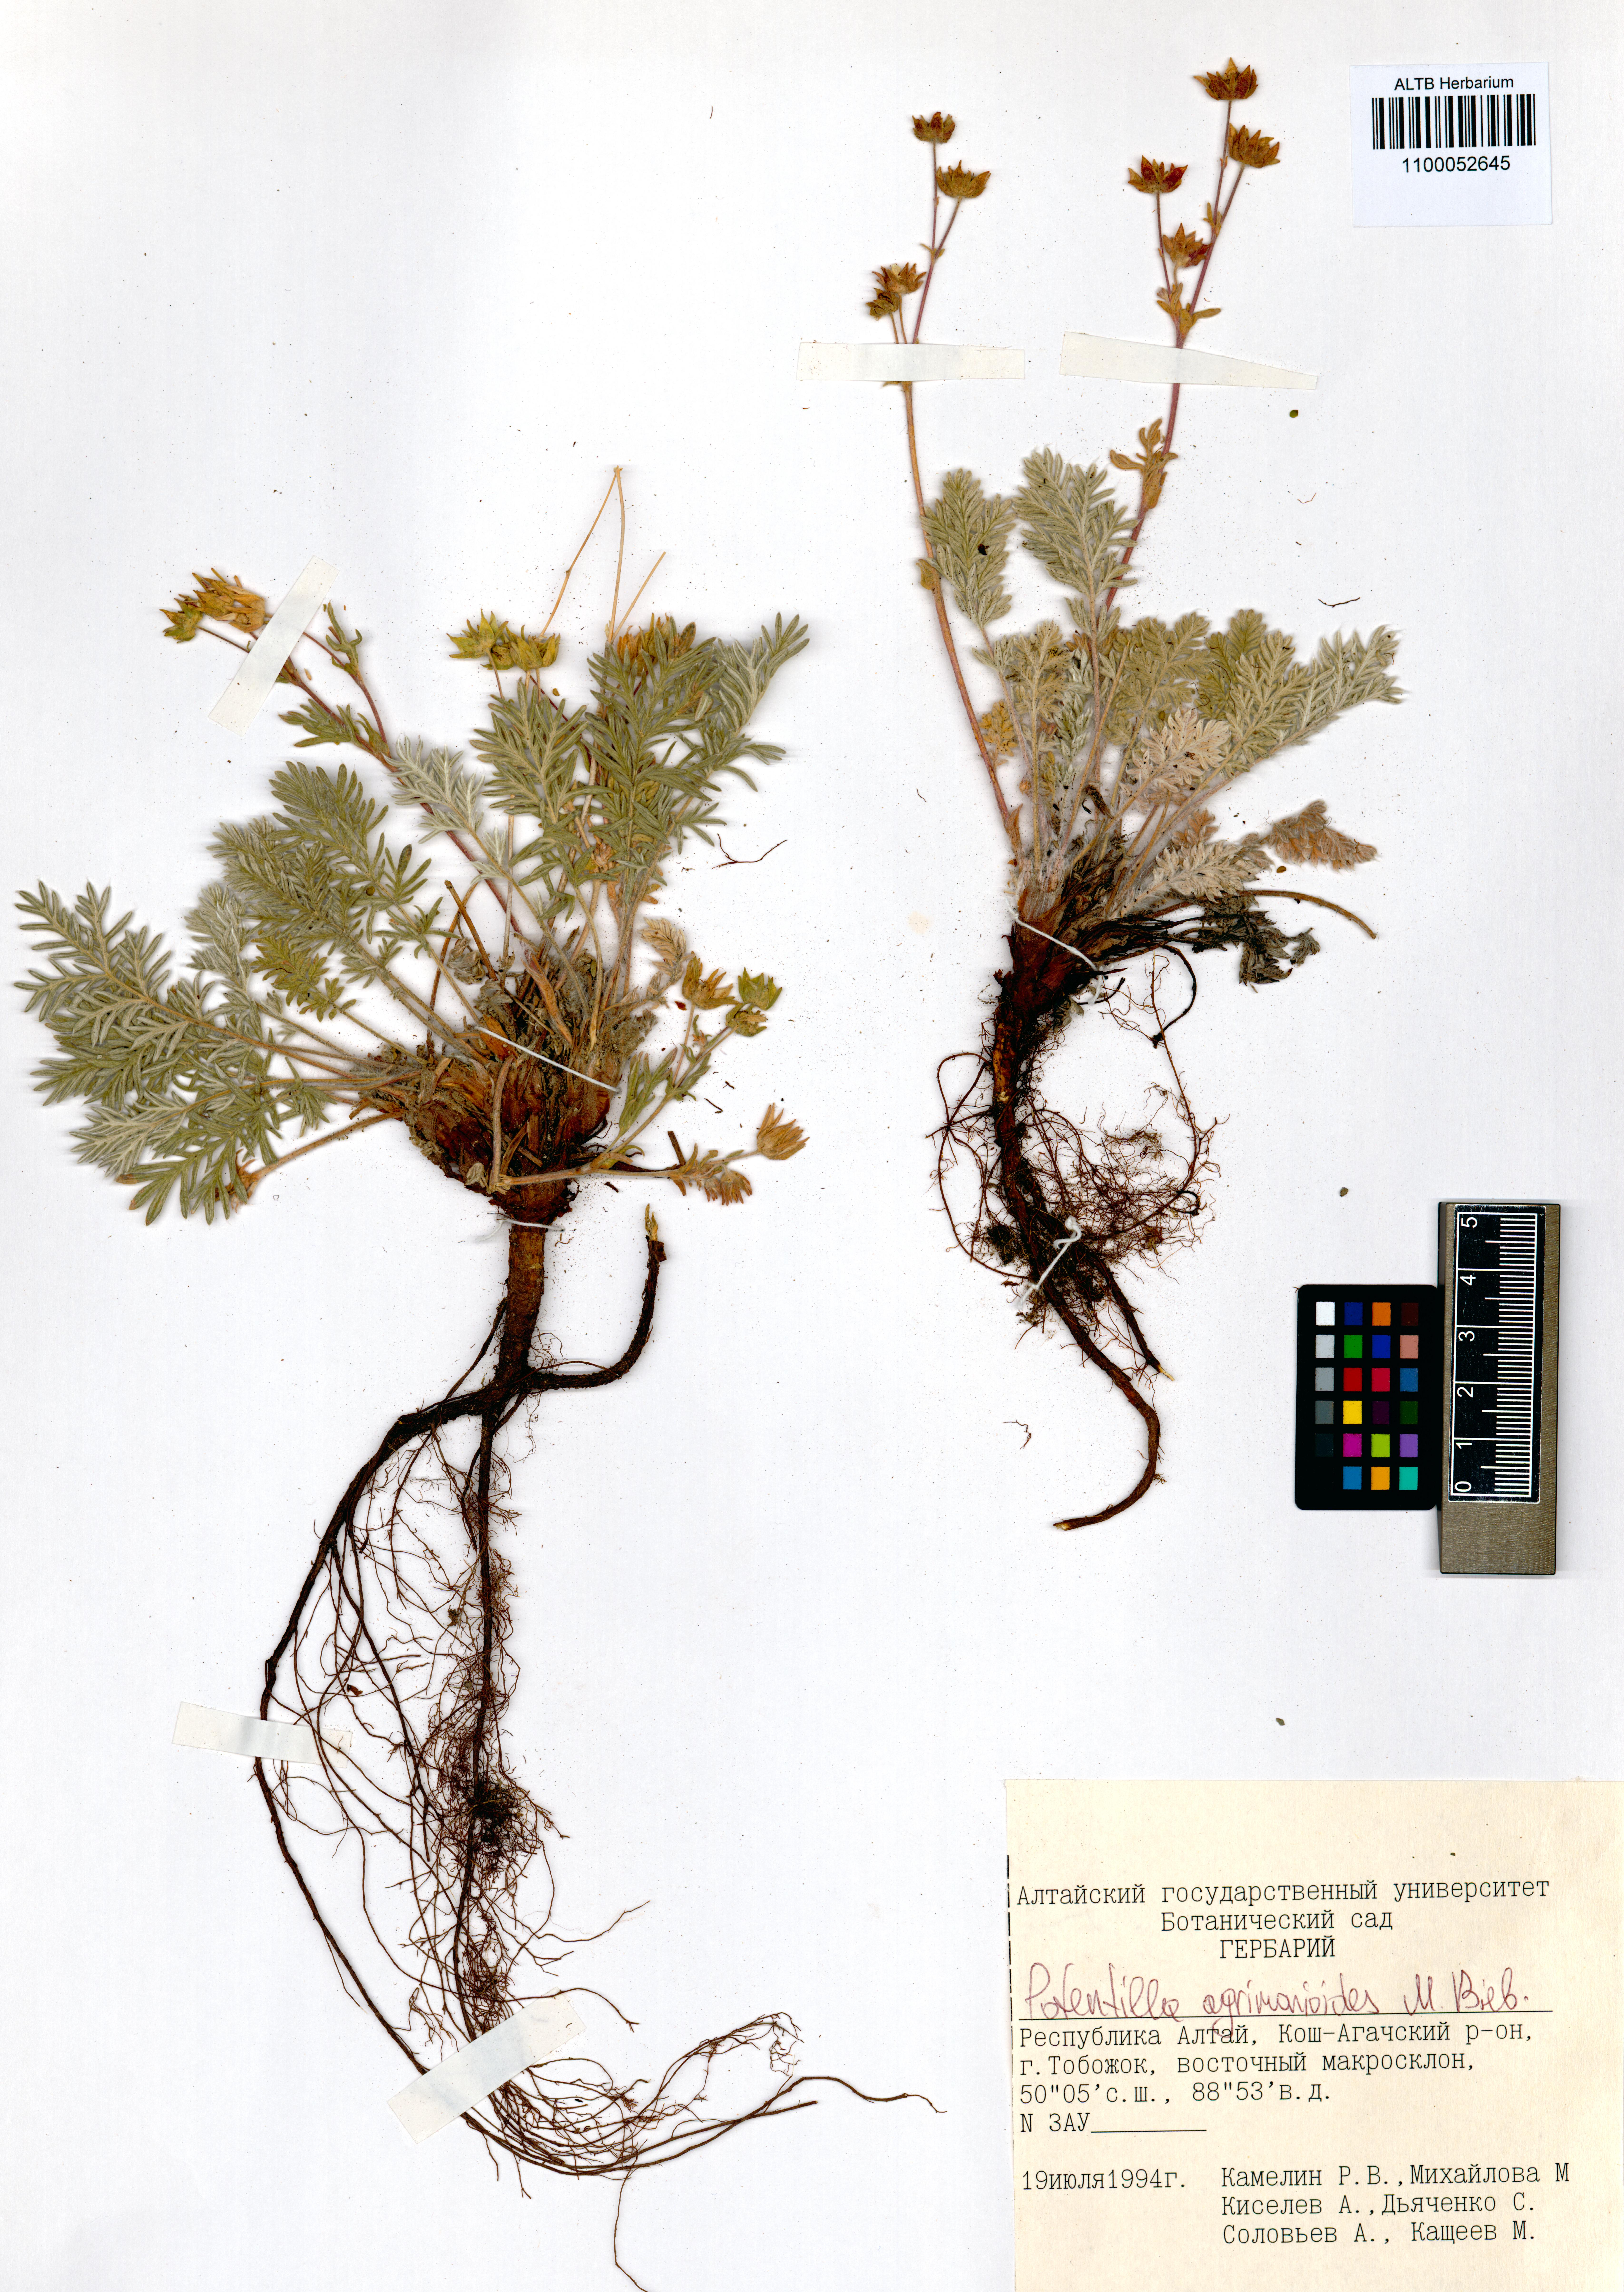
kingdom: Plantae
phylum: Tracheophyta
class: Magnoliopsida
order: Rosales
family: Rosaceae
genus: Potentilla
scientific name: Potentilla agrimonioides
